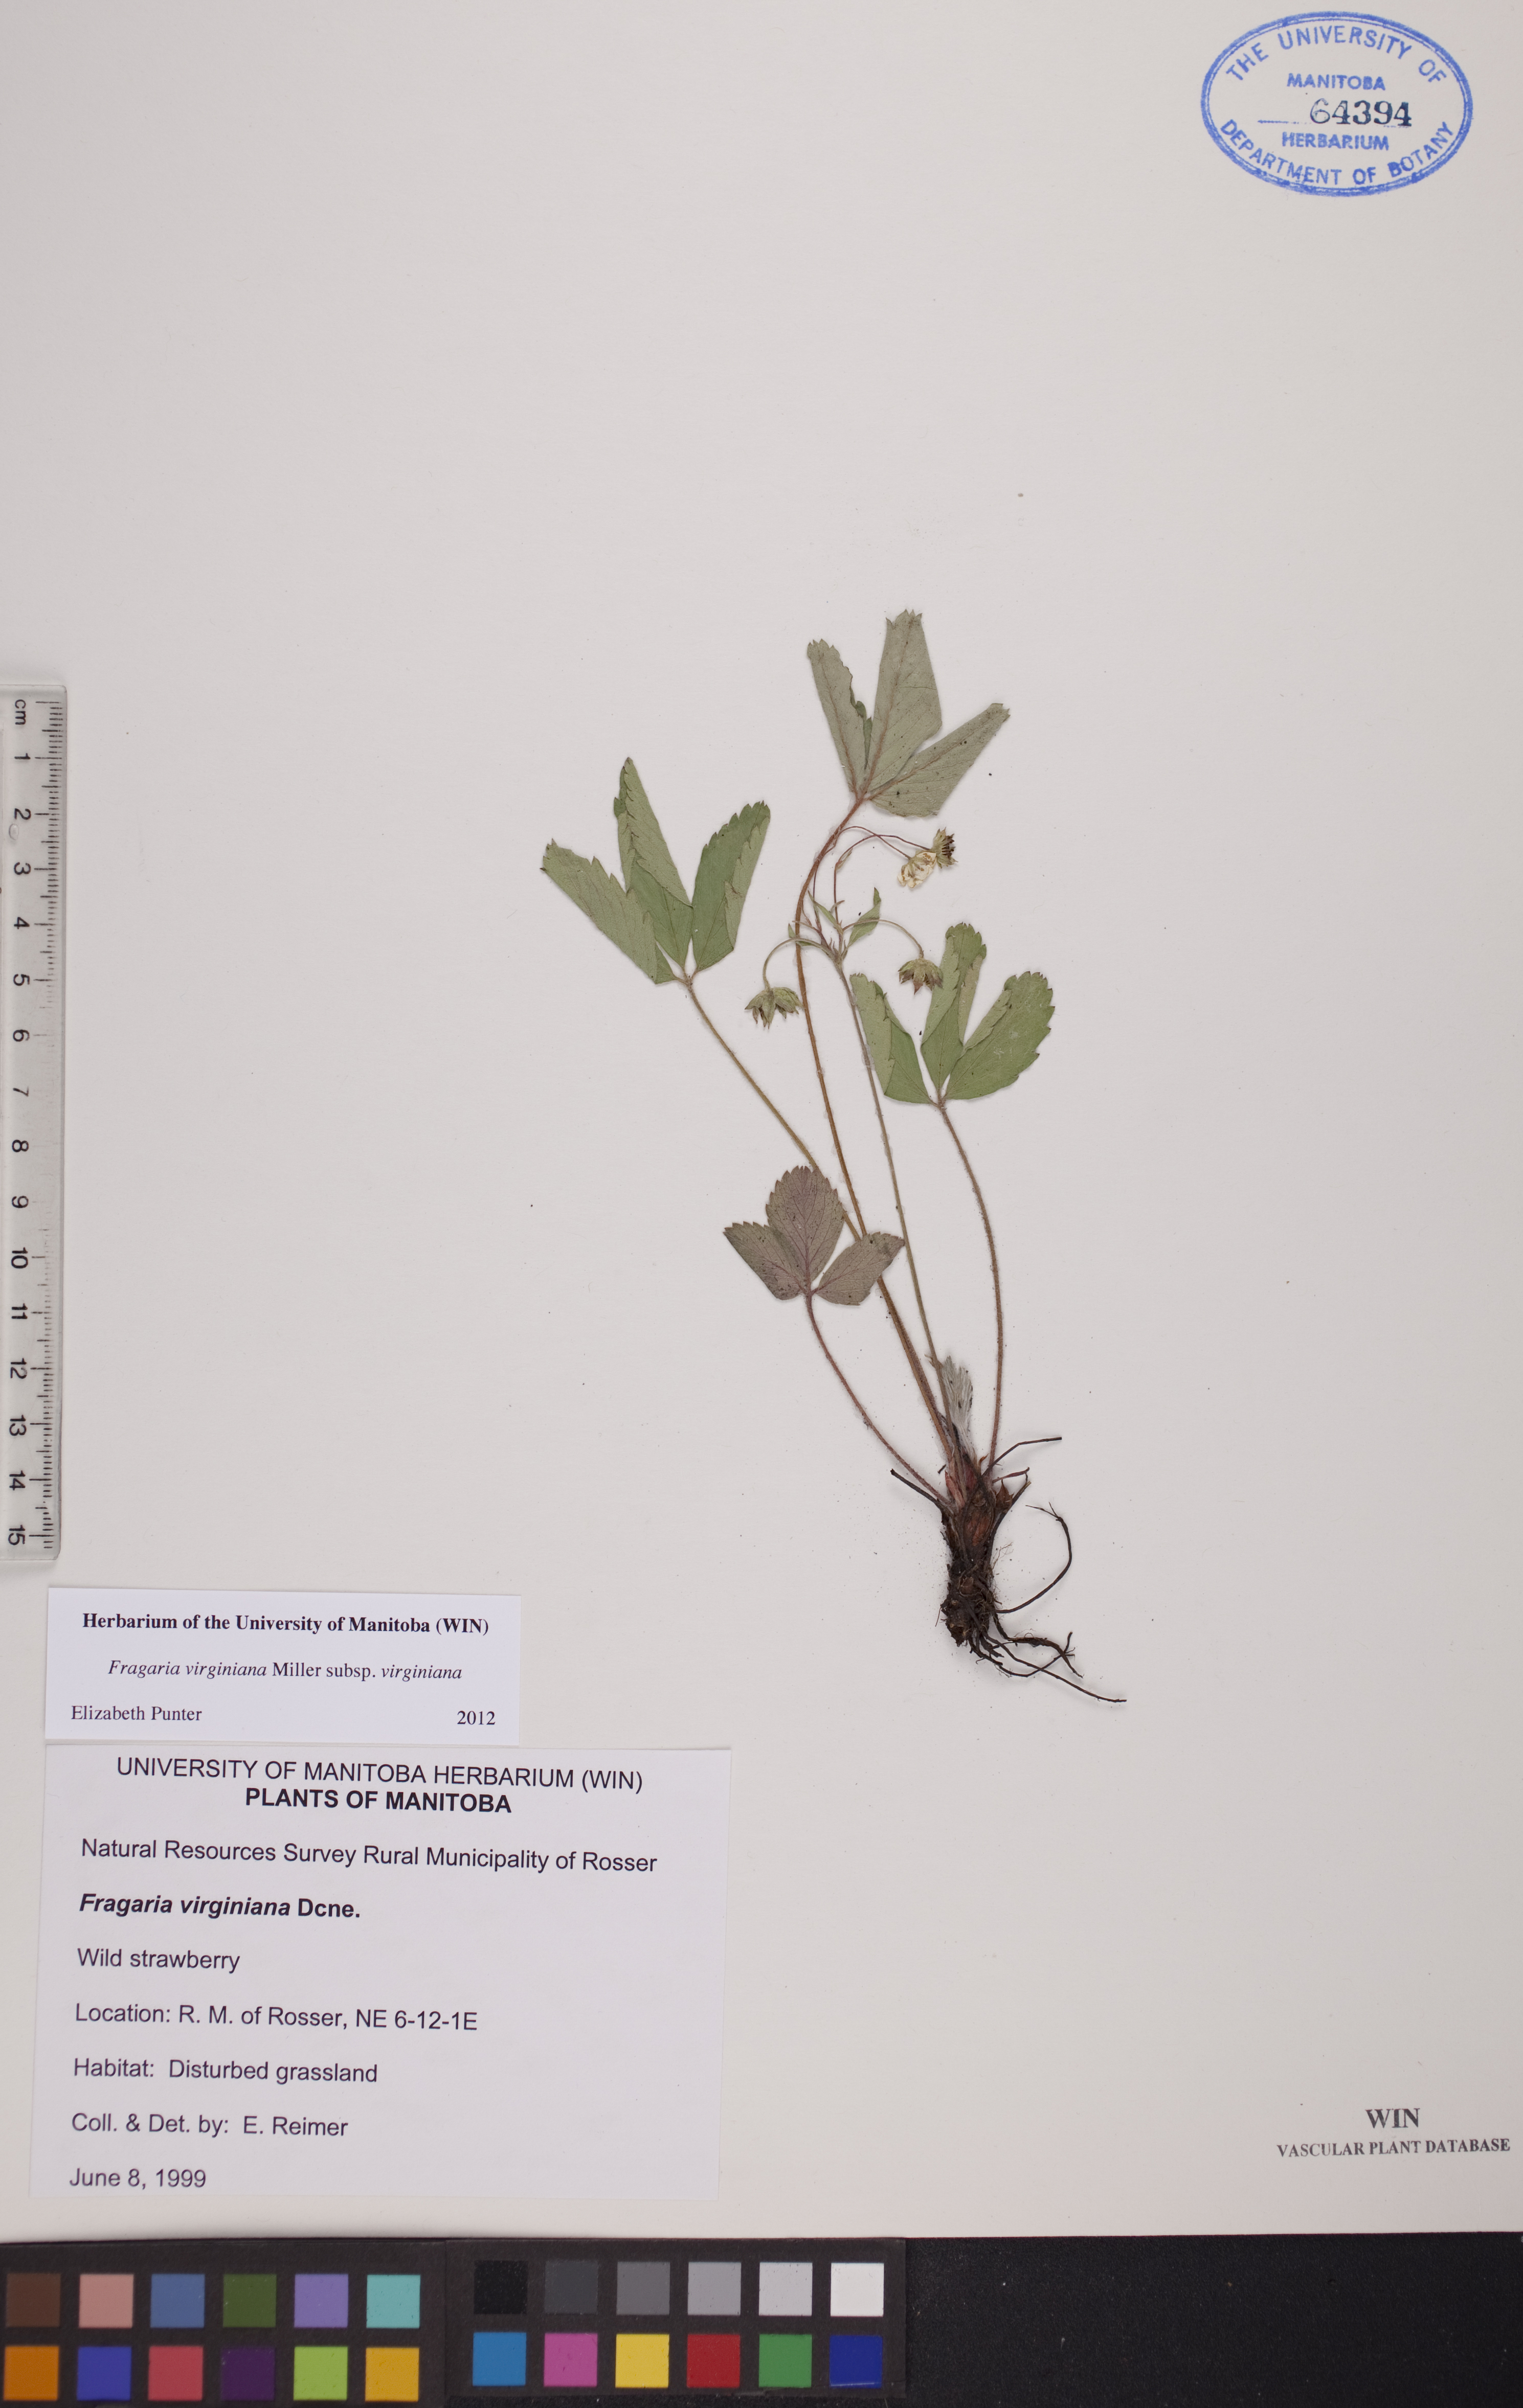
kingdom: Plantae
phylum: Tracheophyta
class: Magnoliopsida
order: Rosales
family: Rosaceae
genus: Fragaria
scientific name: Fragaria virginiana
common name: Thickleaved wild strawberry
